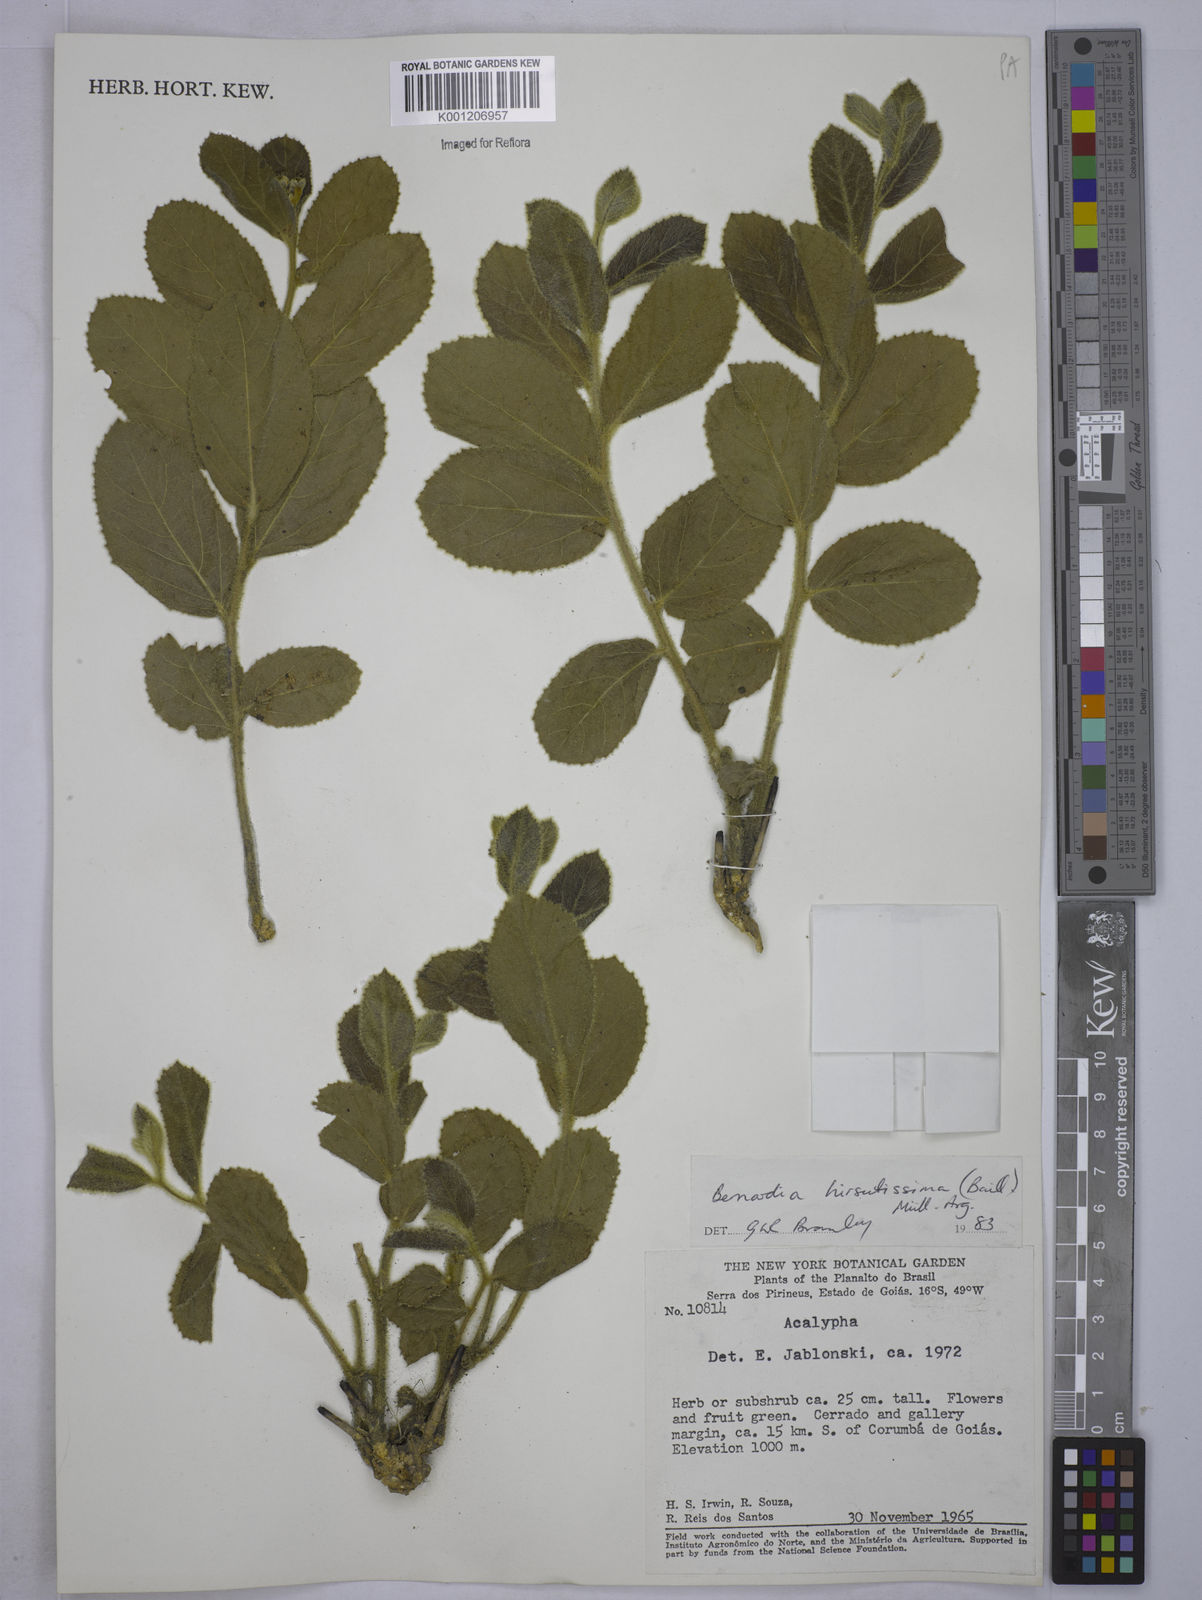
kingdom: Plantae
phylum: Tracheophyta
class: Magnoliopsida
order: Malpighiales
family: Euphorbiaceae
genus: Bernardia
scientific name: Bernardia
